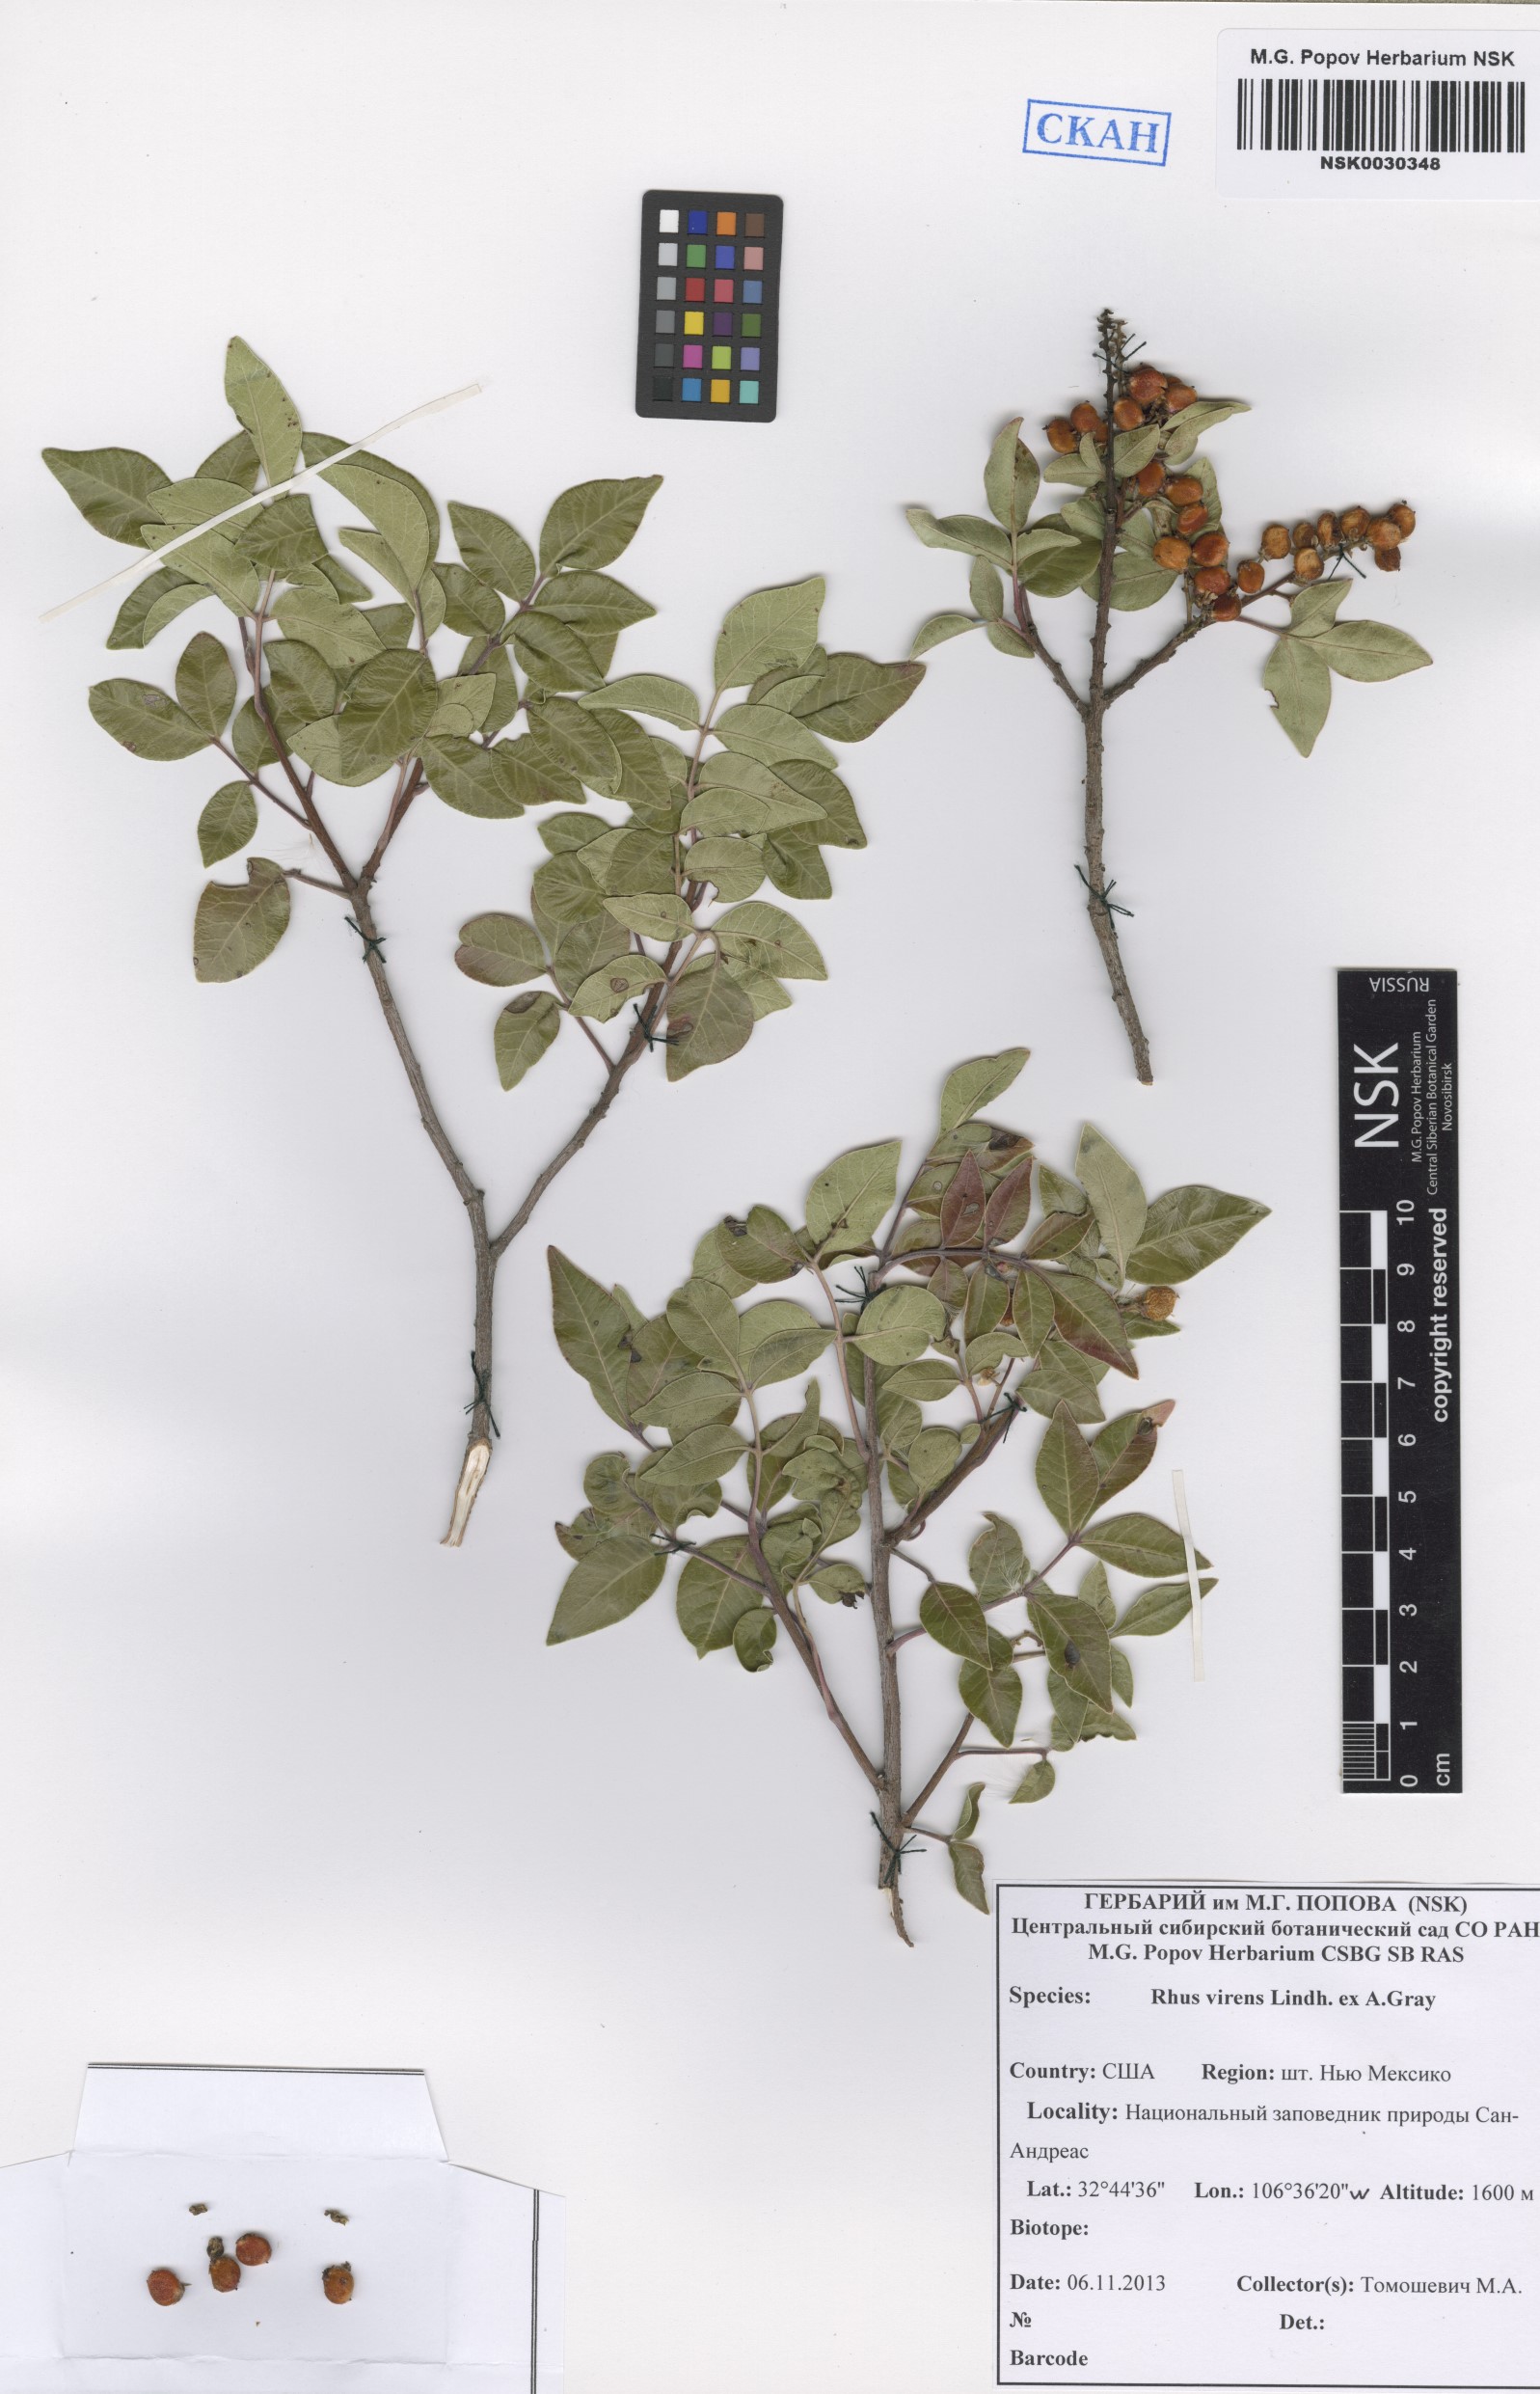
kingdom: Plantae
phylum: Tracheophyta
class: Magnoliopsida
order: Sapindales
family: Anacardiaceae
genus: Rhus
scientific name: Rhus virens
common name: Evergreen sumac
